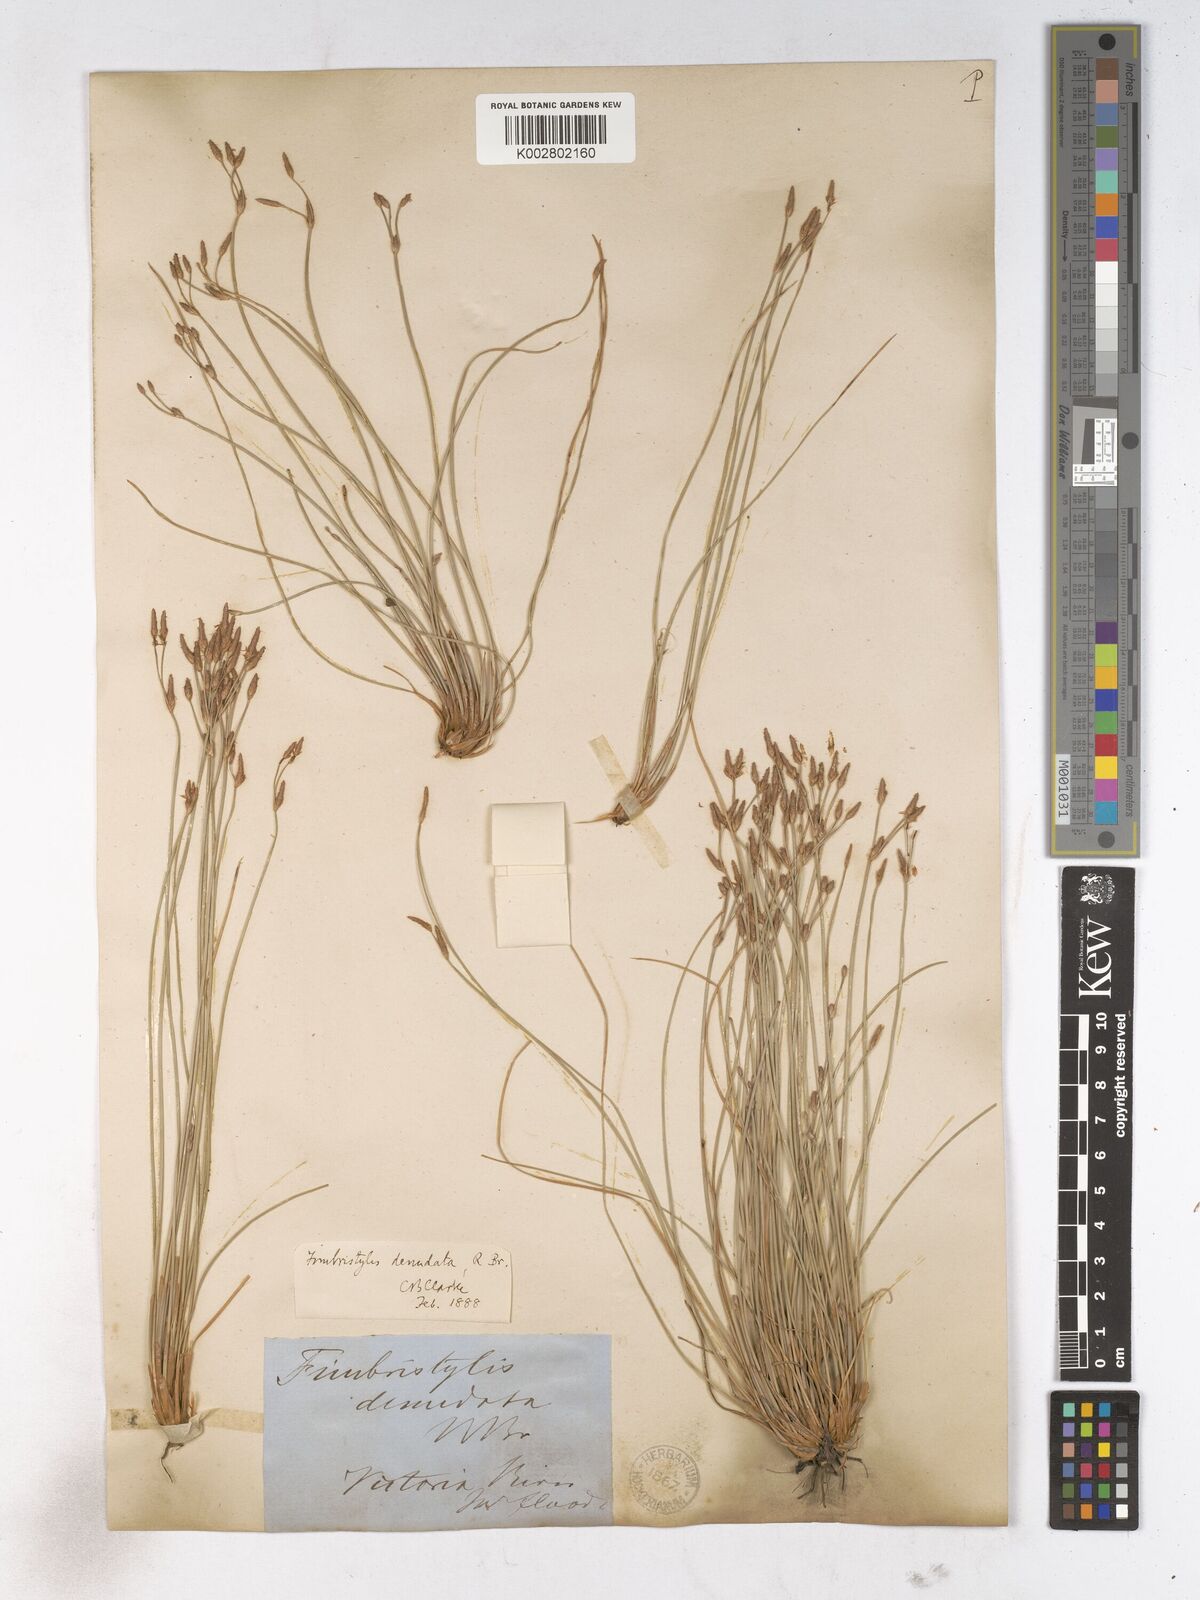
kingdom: Plantae
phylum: Tracheophyta
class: Liliopsida
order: Poales
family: Cyperaceae
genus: Fimbristylis
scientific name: Fimbristylis denudata
